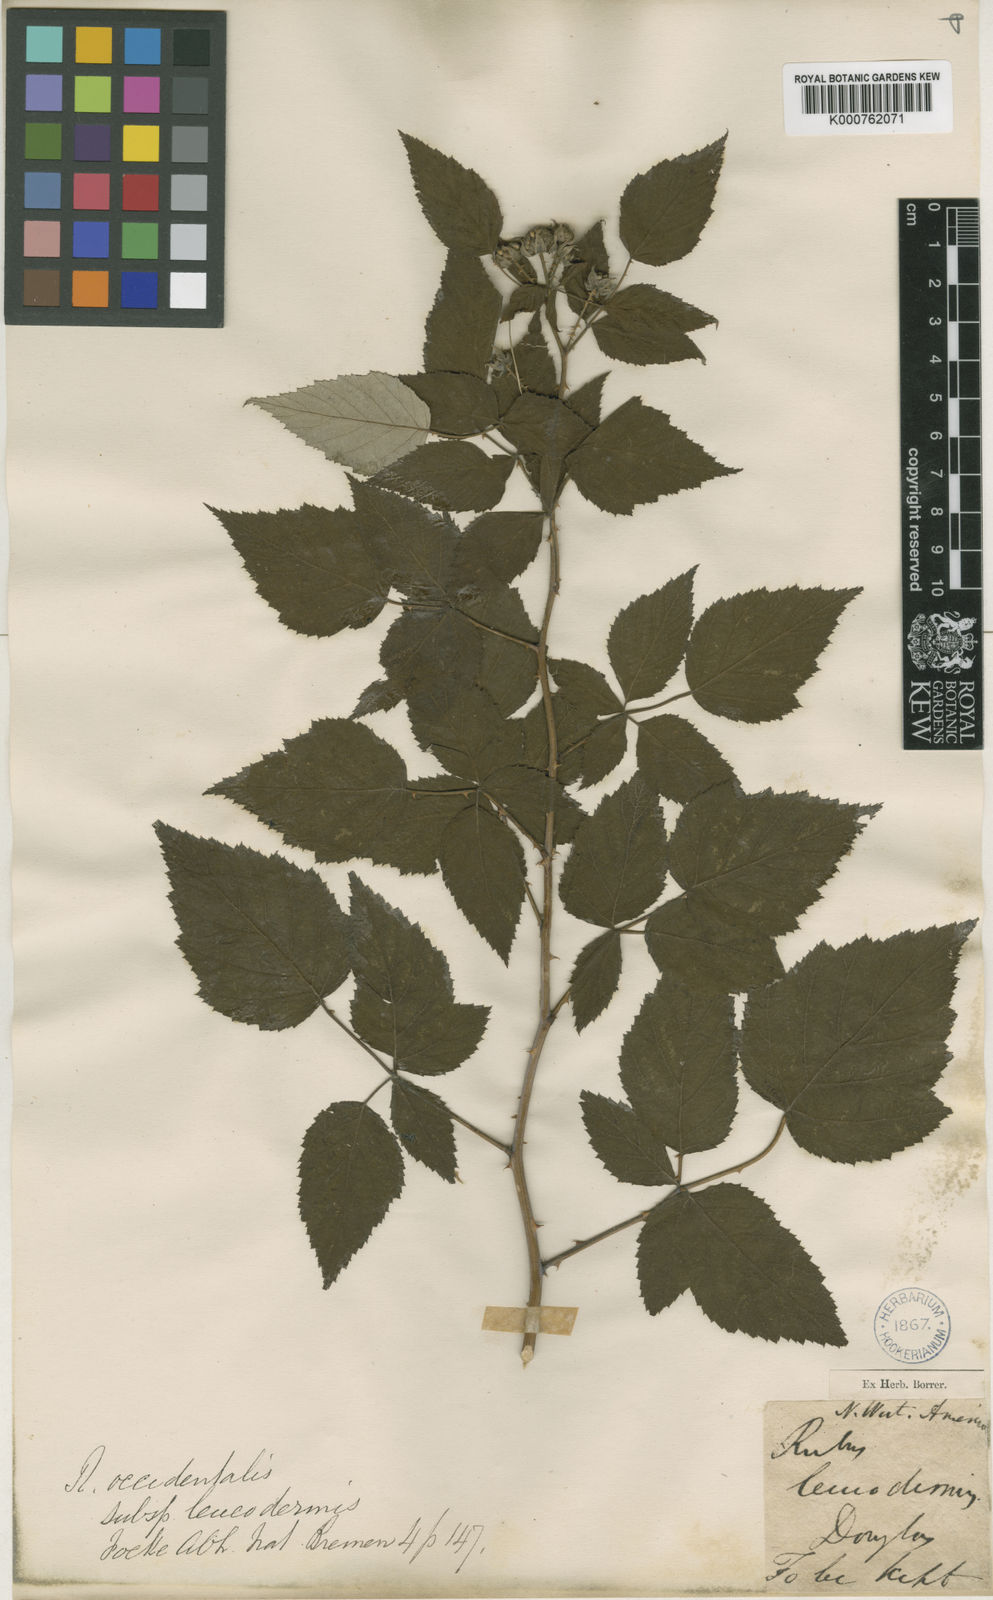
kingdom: Plantae
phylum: Tracheophyta
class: Magnoliopsida
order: Rosales
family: Rosaceae
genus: Rubus
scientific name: Rubus
